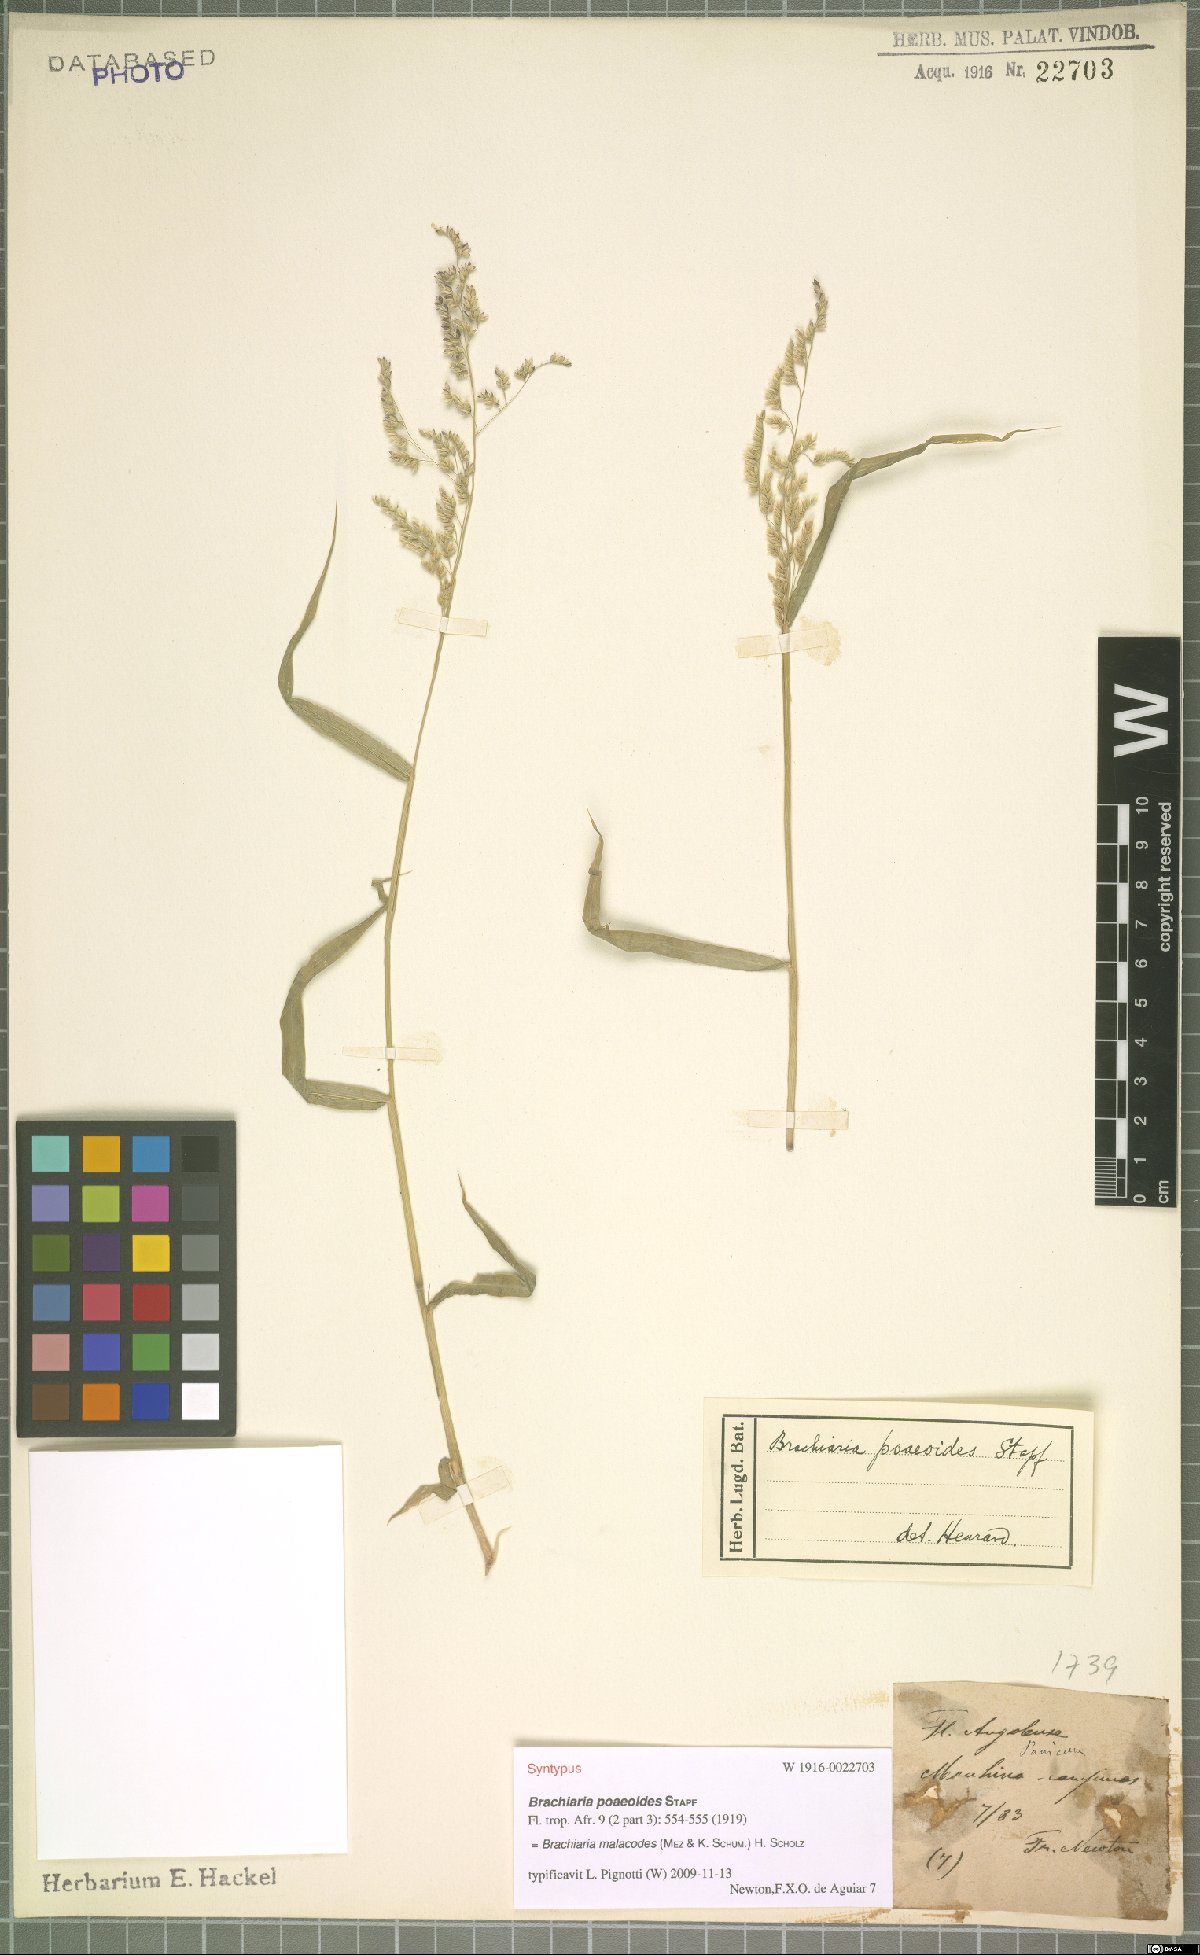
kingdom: Plantae
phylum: Tracheophyta
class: Liliopsida
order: Poales
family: Poaceae
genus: Moorochloa
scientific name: Moorochloa malacodes
